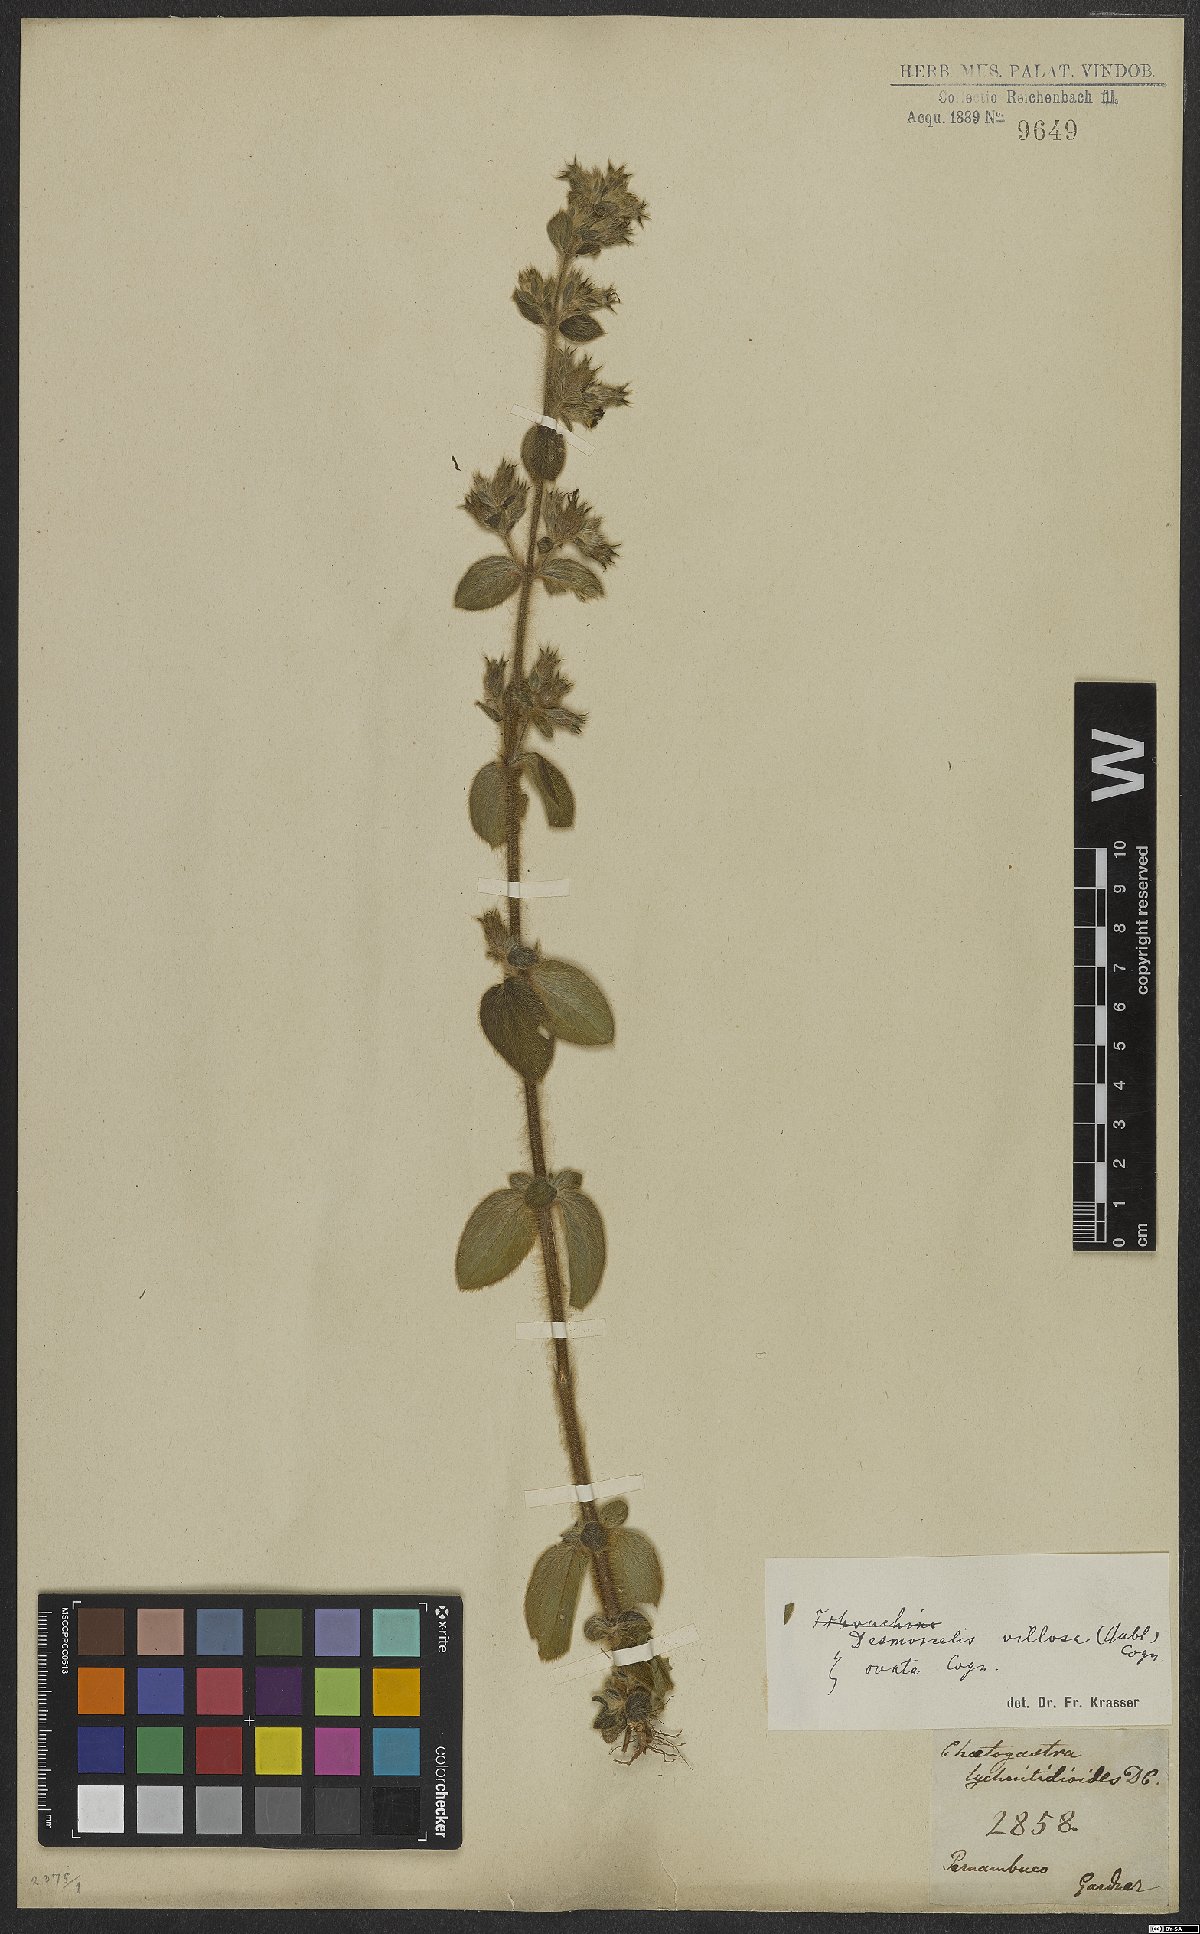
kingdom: Plantae
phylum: Tracheophyta
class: Magnoliopsida
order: Myrtales
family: Melastomataceae
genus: Desmoscelis
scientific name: Desmoscelis villosa
